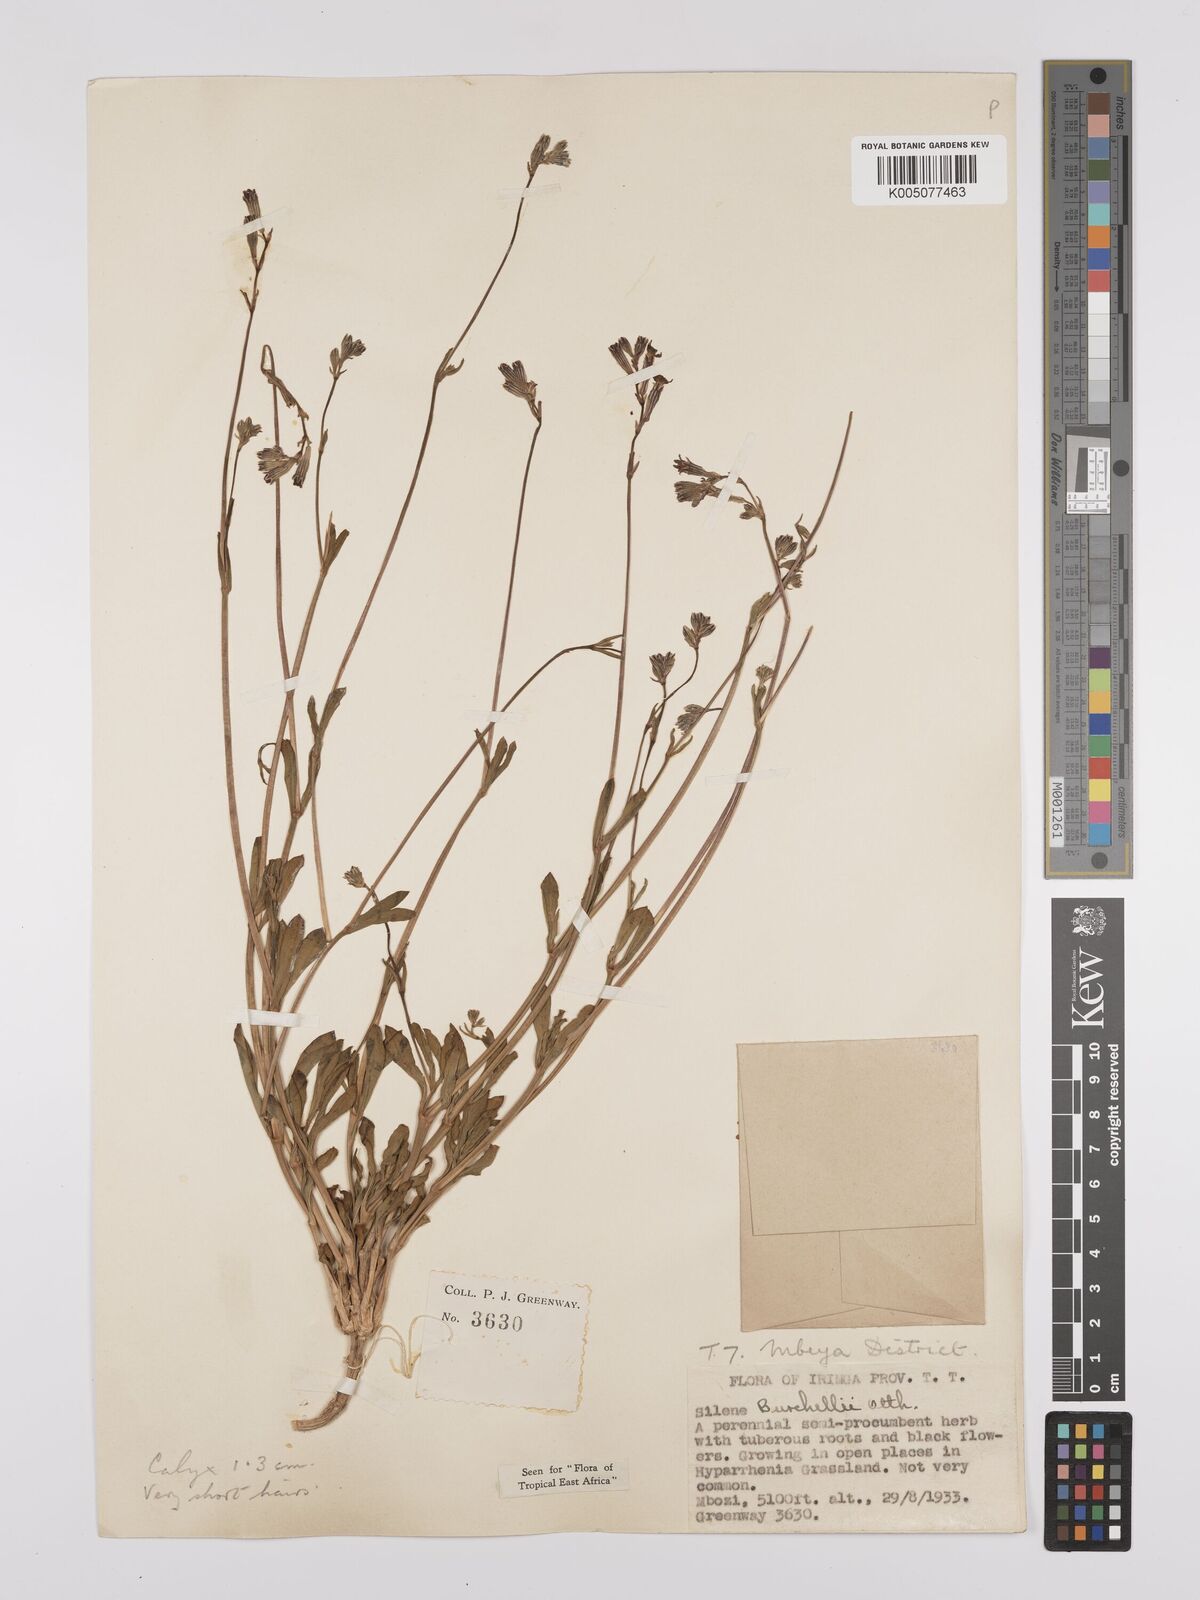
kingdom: Plantae
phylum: Tracheophyta
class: Magnoliopsida
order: Caryophyllales
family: Caryophyllaceae
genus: Silene
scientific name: Silene burchellii
